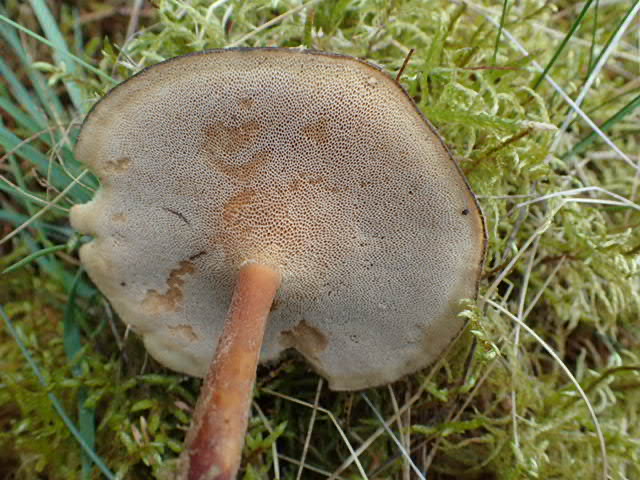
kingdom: Fungi
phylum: Basidiomycota
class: Agaricomycetes
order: Polyporales
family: Polyporaceae
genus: Lentinus
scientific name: Lentinus brumalis
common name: vinter-stilkporesvamp
